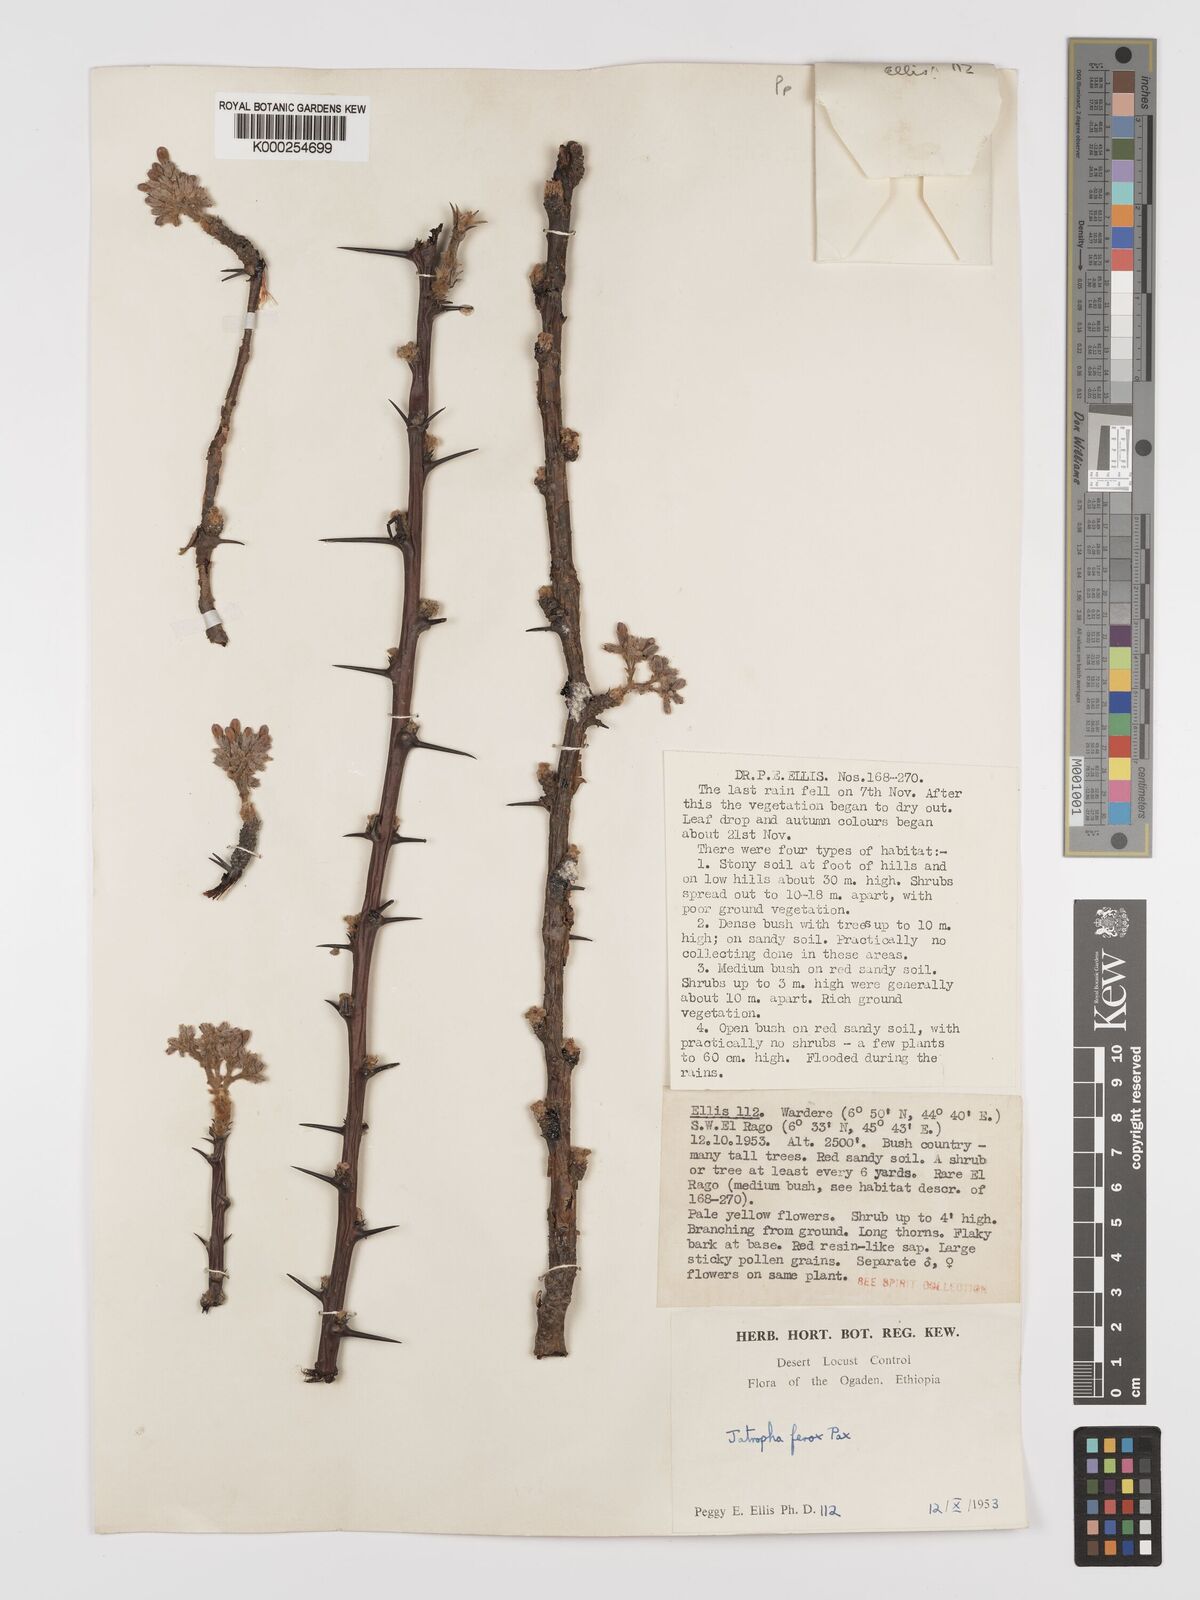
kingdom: Plantae
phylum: Tracheophyta
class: Magnoliopsida
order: Malpighiales
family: Euphorbiaceae
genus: Jatropha
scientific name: Jatropha dichtar
